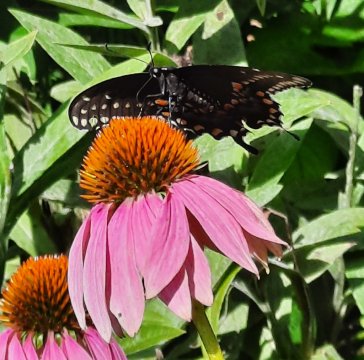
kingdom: Animalia
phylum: Arthropoda
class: Insecta
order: Lepidoptera
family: Papilionidae
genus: Papilio
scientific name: Papilio polyxenes
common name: Black Swallowtail
